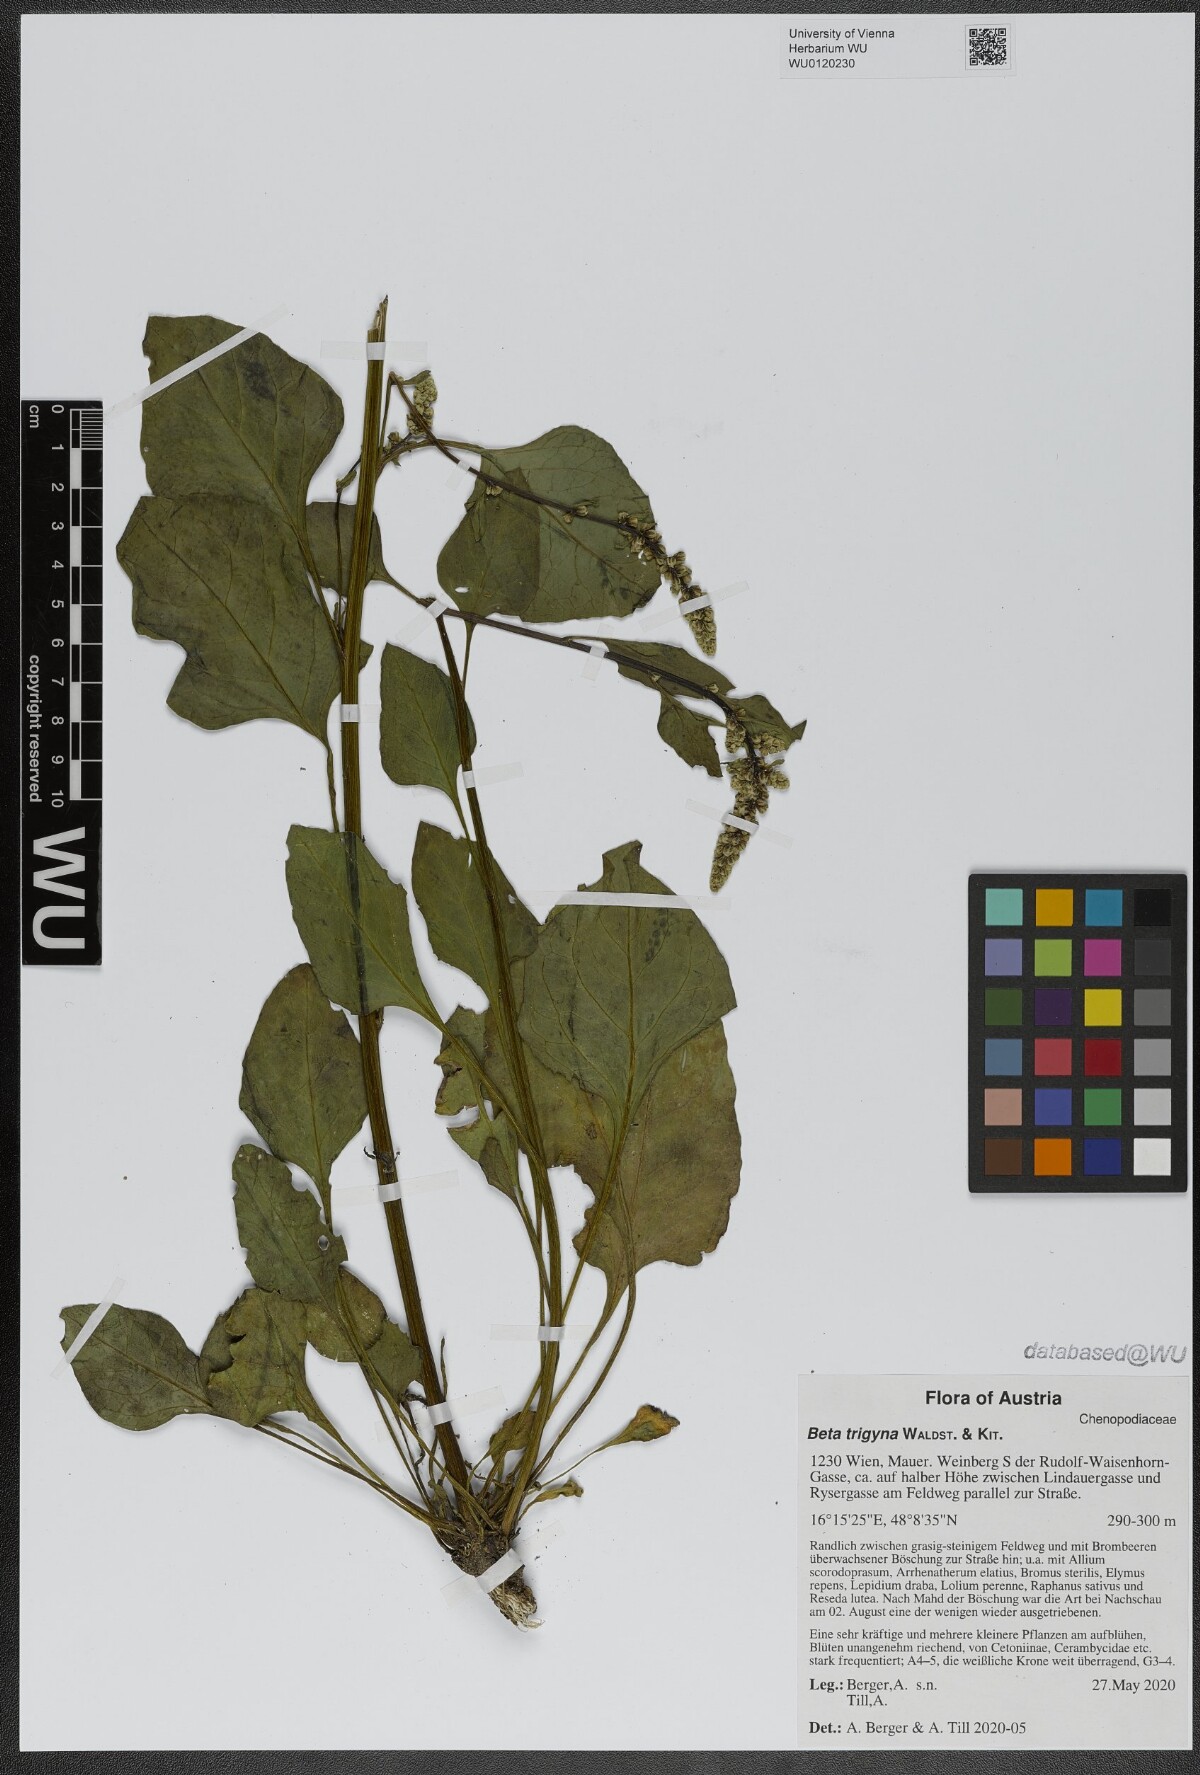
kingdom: Plantae
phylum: Tracheophyta
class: Magnoliopsida
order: Caryophyllales
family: Amaranthaceae
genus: Beta
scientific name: Beta trigyna
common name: Caucasian beet
